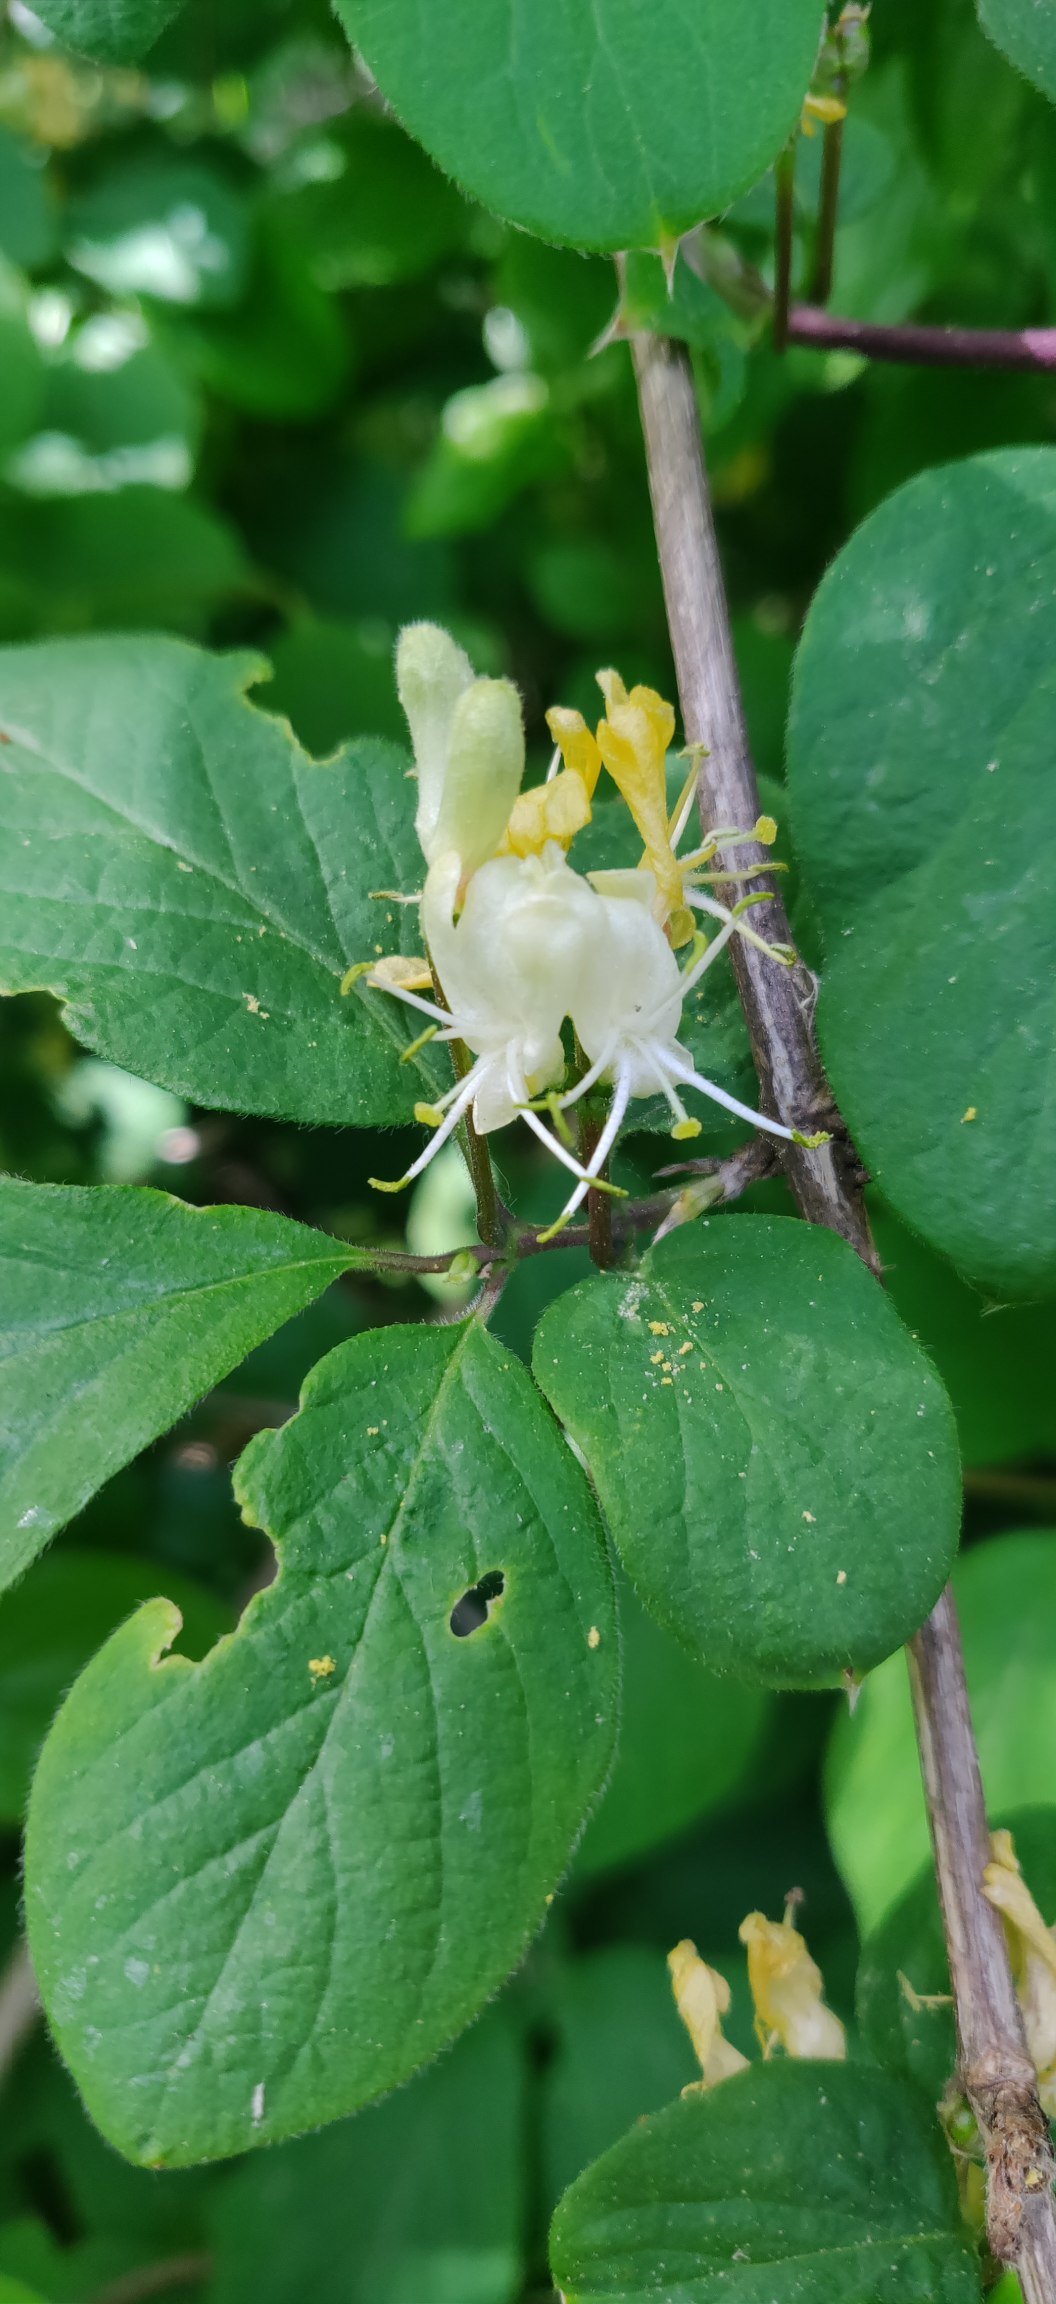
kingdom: Plantae
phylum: Tracheophyta
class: Magnoliopsida
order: Dipsacales
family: Caprifoliaceae
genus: Lonicera
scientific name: Lonicera xylosteum
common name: Dunet gedeblad
